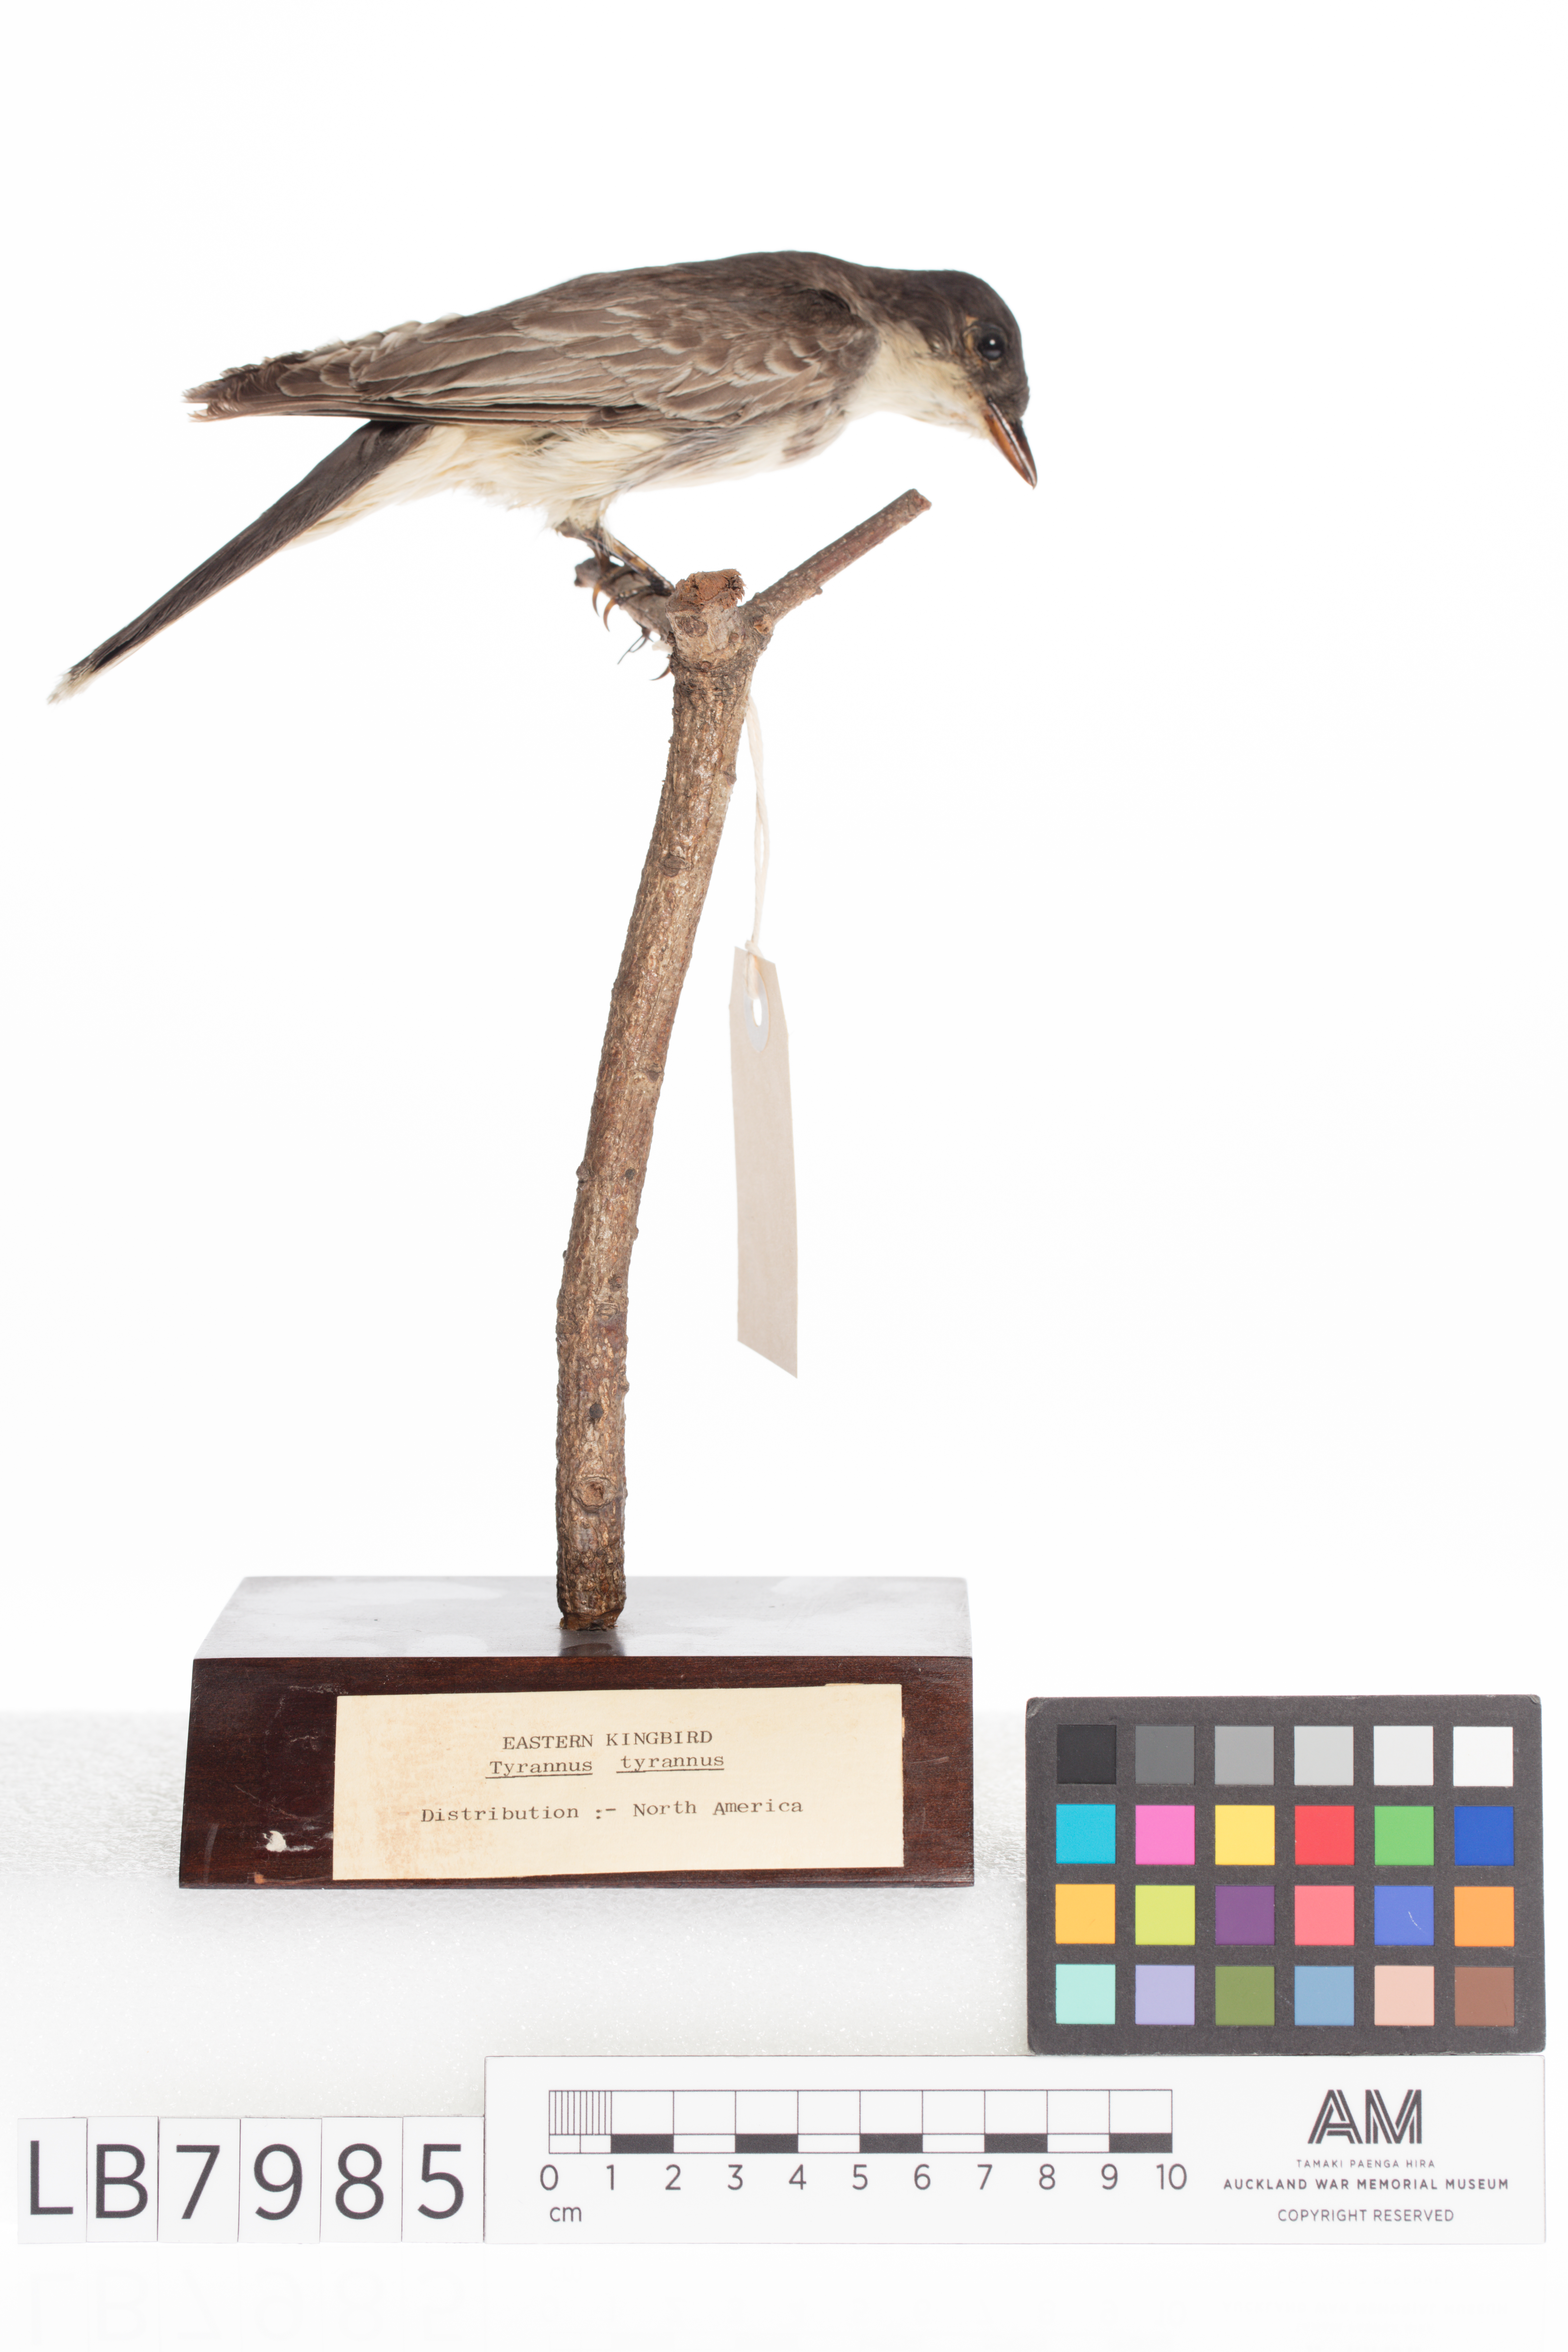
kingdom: Animalia
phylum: Chordata
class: Aves
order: Passeriformes
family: Tyrannidae
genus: Tyrannus
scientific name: Tyrannus tyrannus
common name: Eastern kingbird
